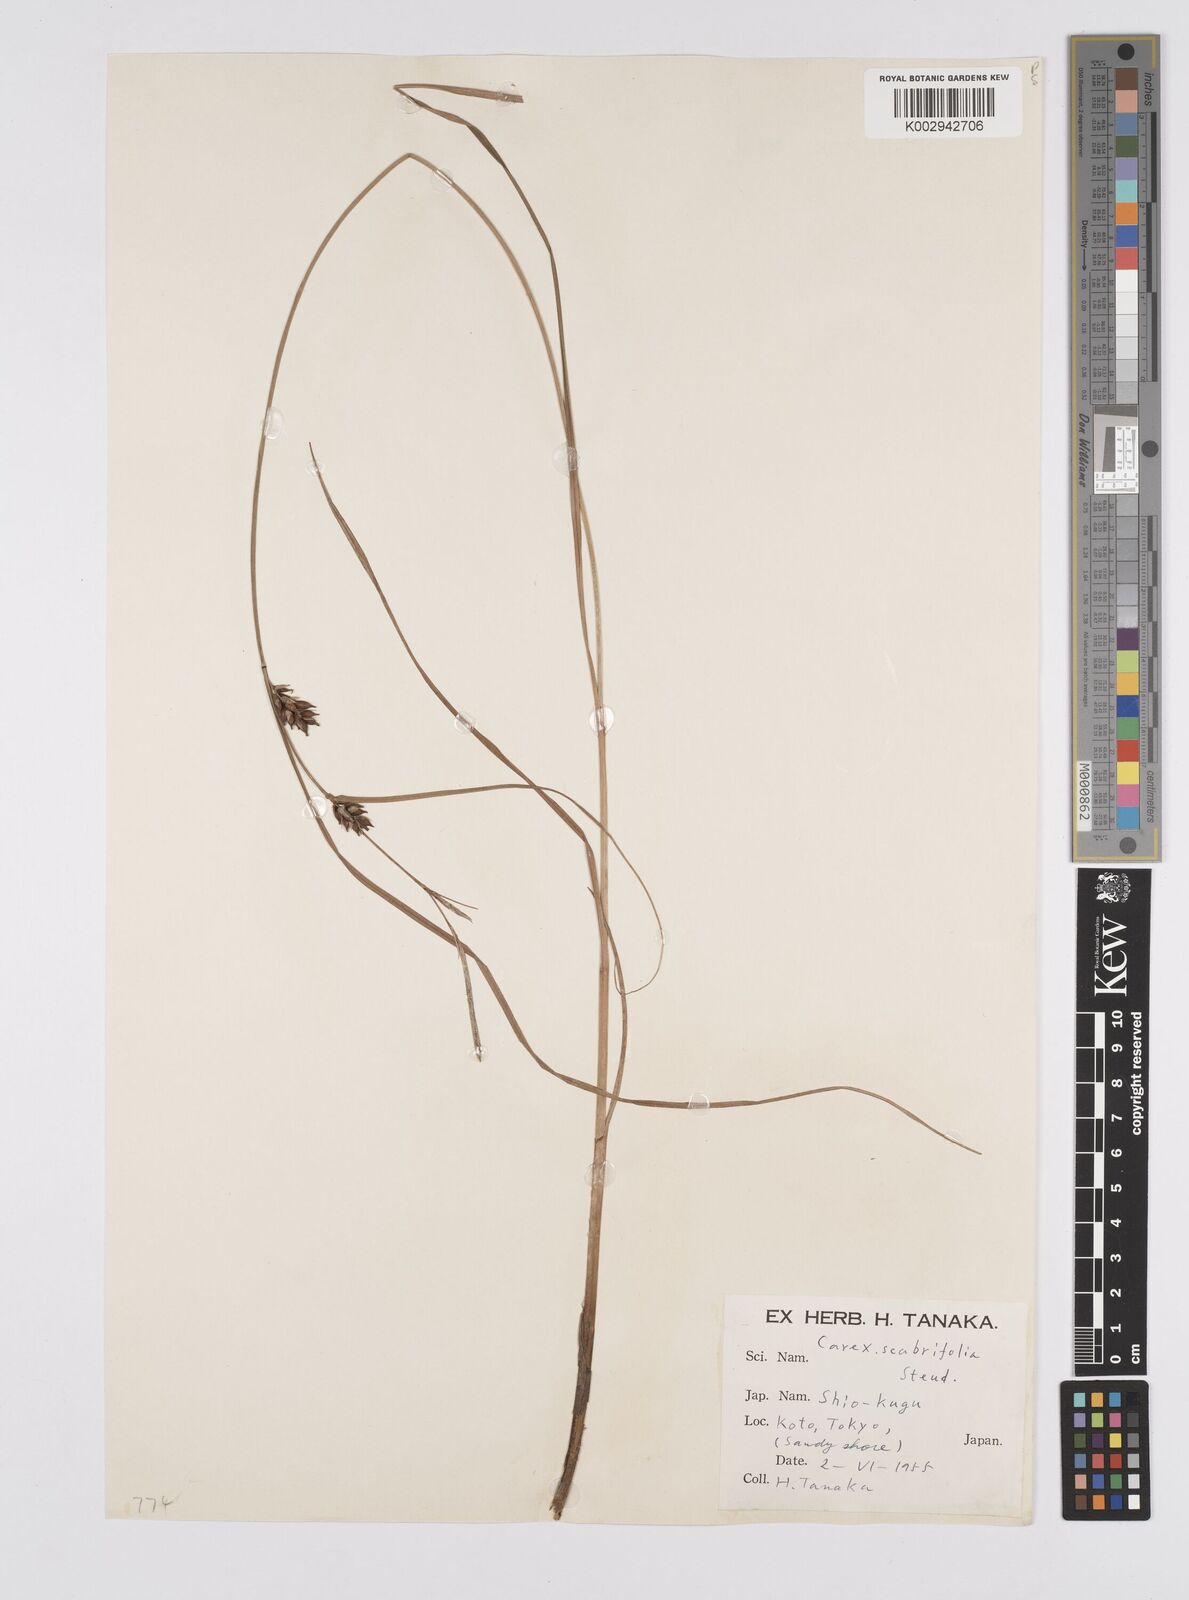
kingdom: Plantae
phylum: Tracheophyta
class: Liliopsida
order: Poales
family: Cyperaceae
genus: Carex
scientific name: Carex scabrifolia
